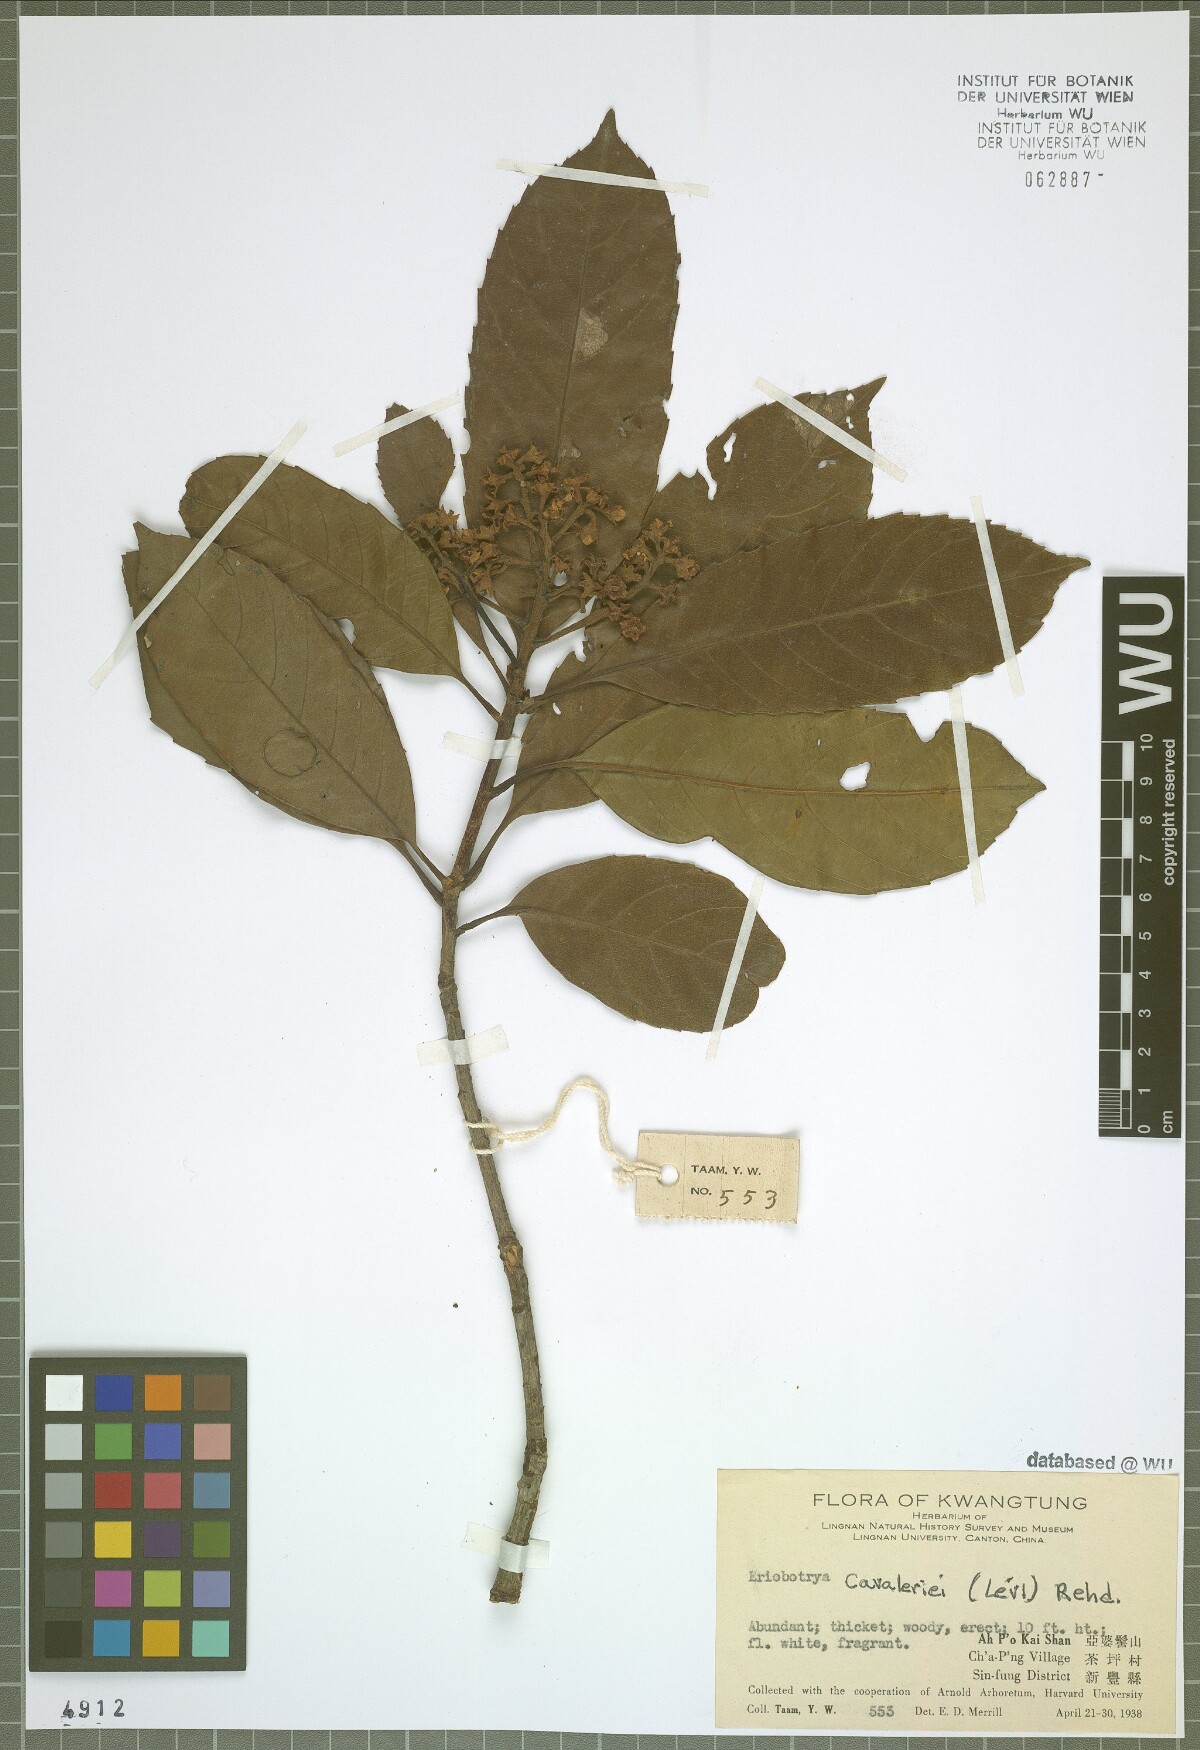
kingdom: Plantae
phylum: Tracheophyta
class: Magnoliopsida
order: Rosales
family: Rosaceae
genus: Rhaphiolepis
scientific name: Rhaphiolepis cavaleriei
